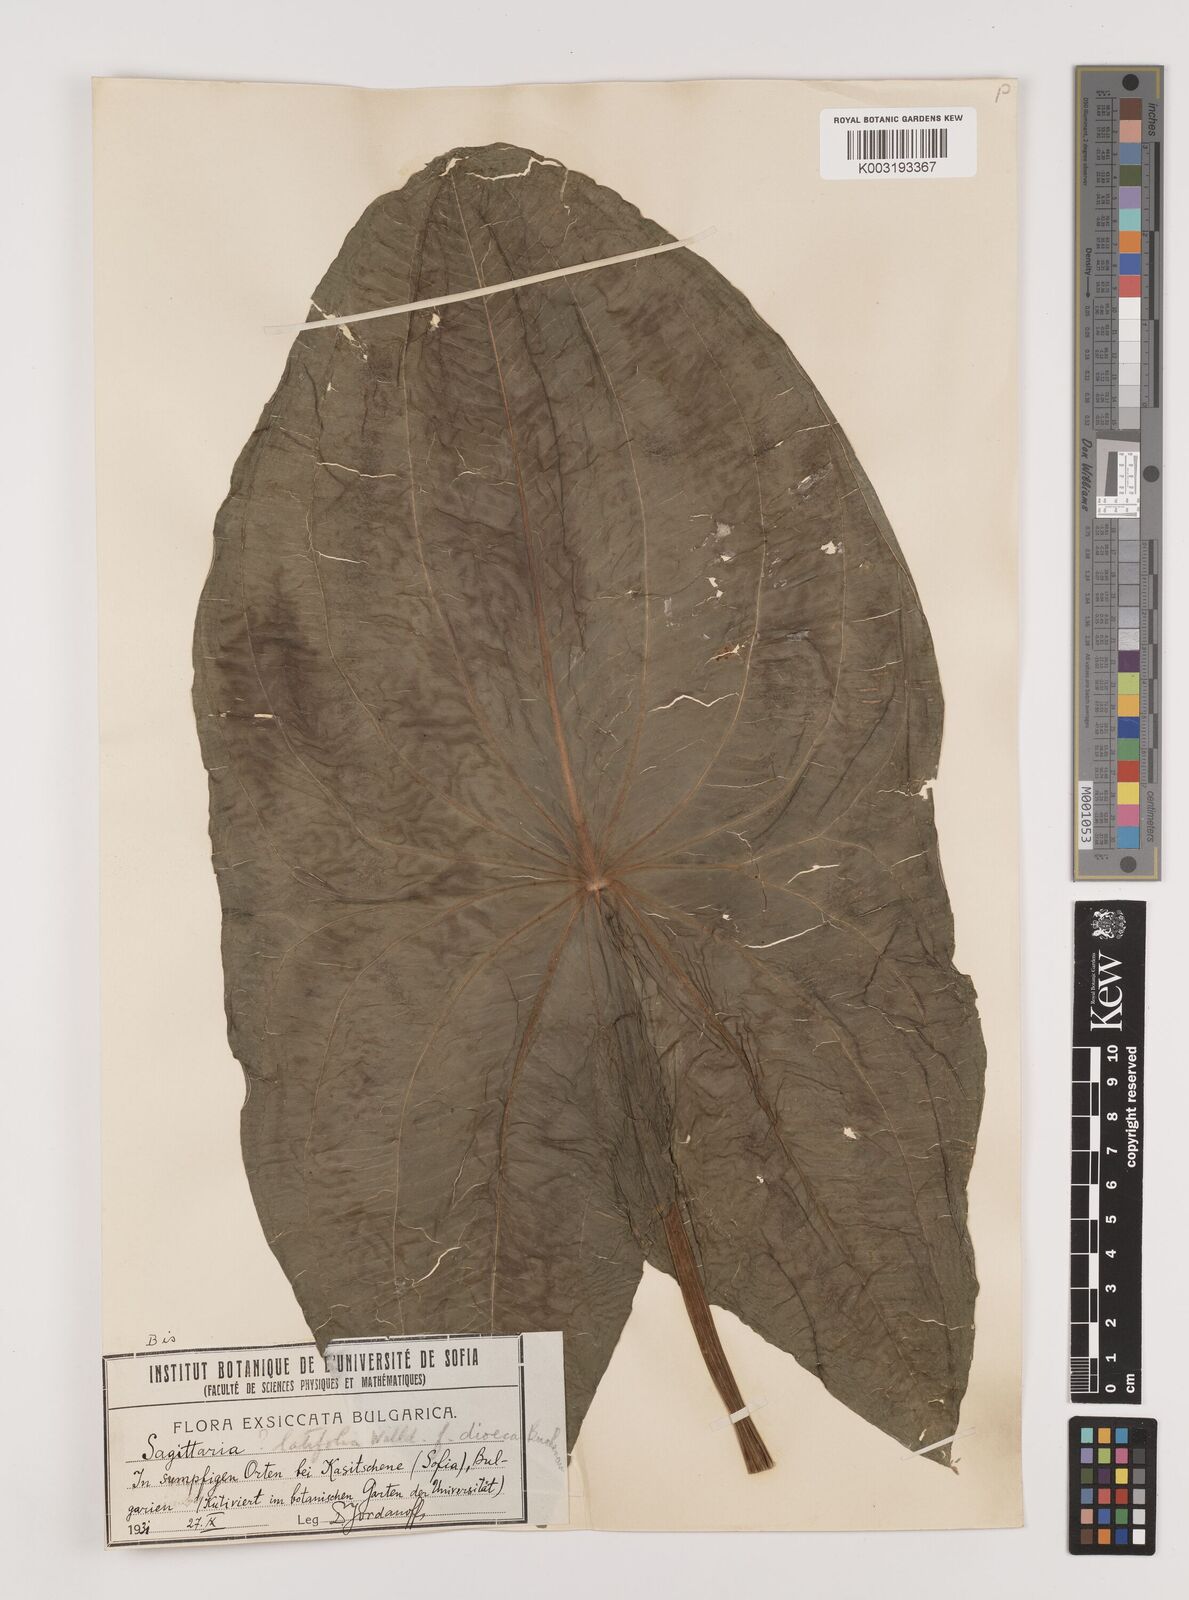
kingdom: Plantae
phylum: Tracheophyta
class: Liliopsida
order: Alismatales
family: Alismataceae
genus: Sagittaria
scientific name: Sagittaria latifolia
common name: Duck-potato
